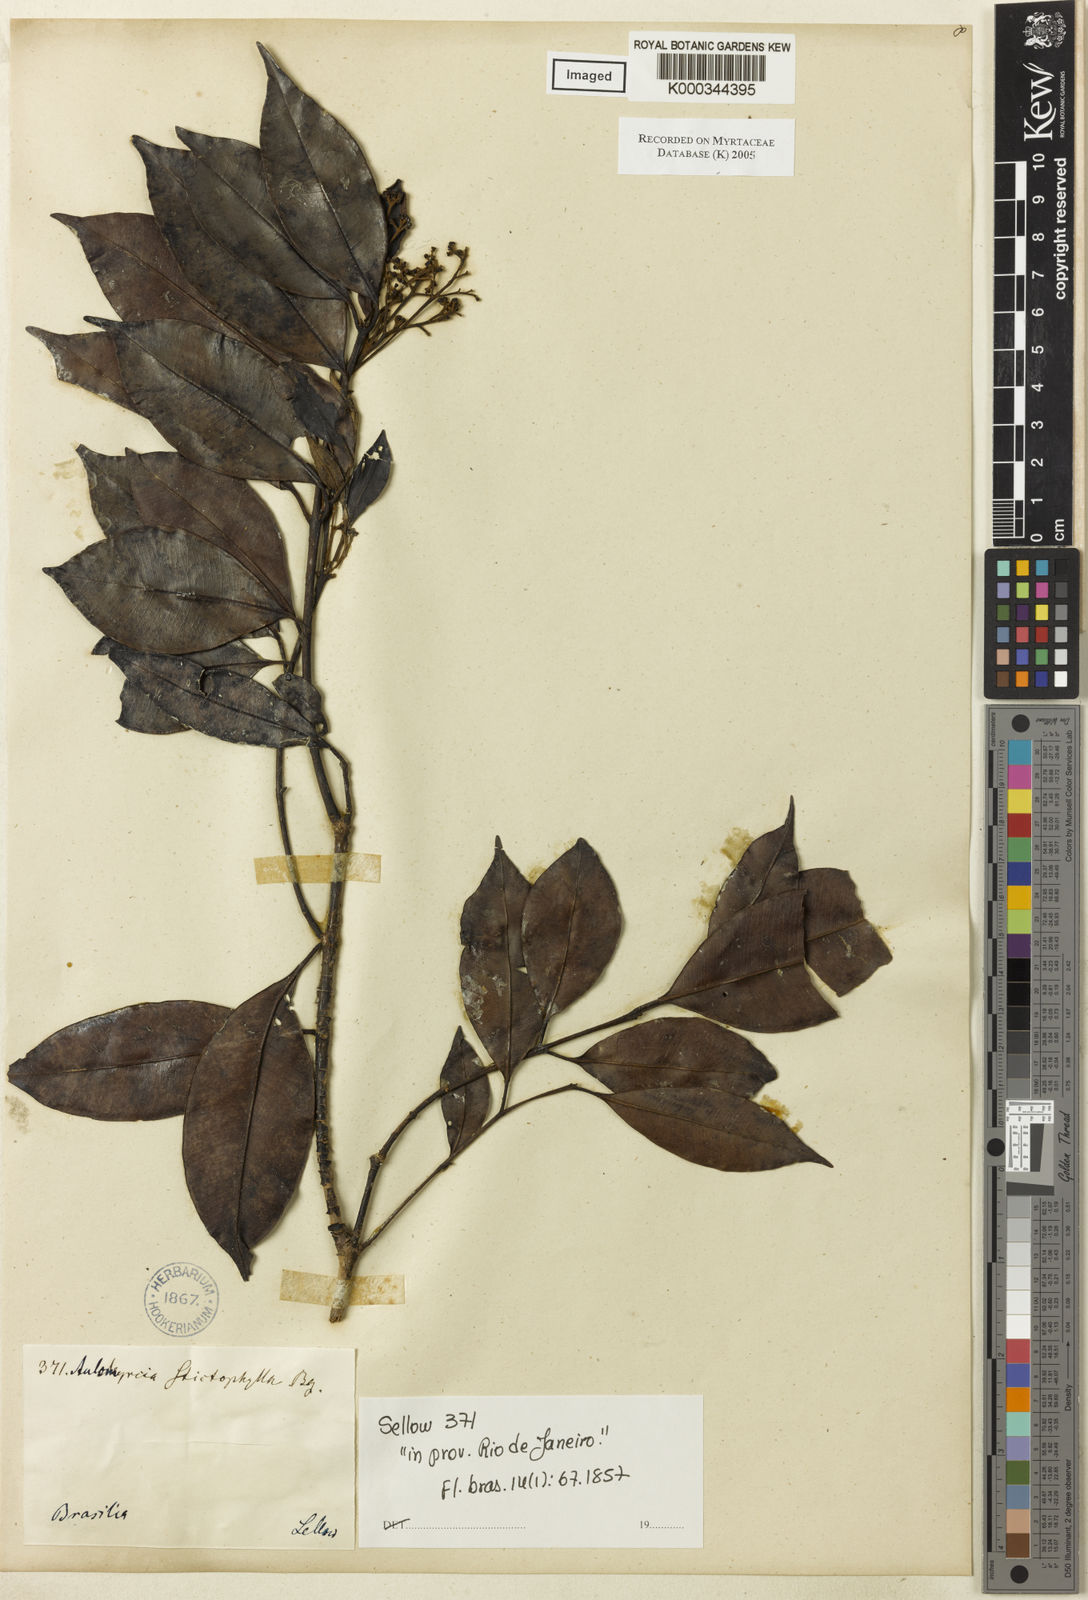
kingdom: Plantae
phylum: Tracheophyta
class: Magnoliopsida
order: Myrtales
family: Myrtaceae
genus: Myrcia
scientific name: Myrcia stictophylla
